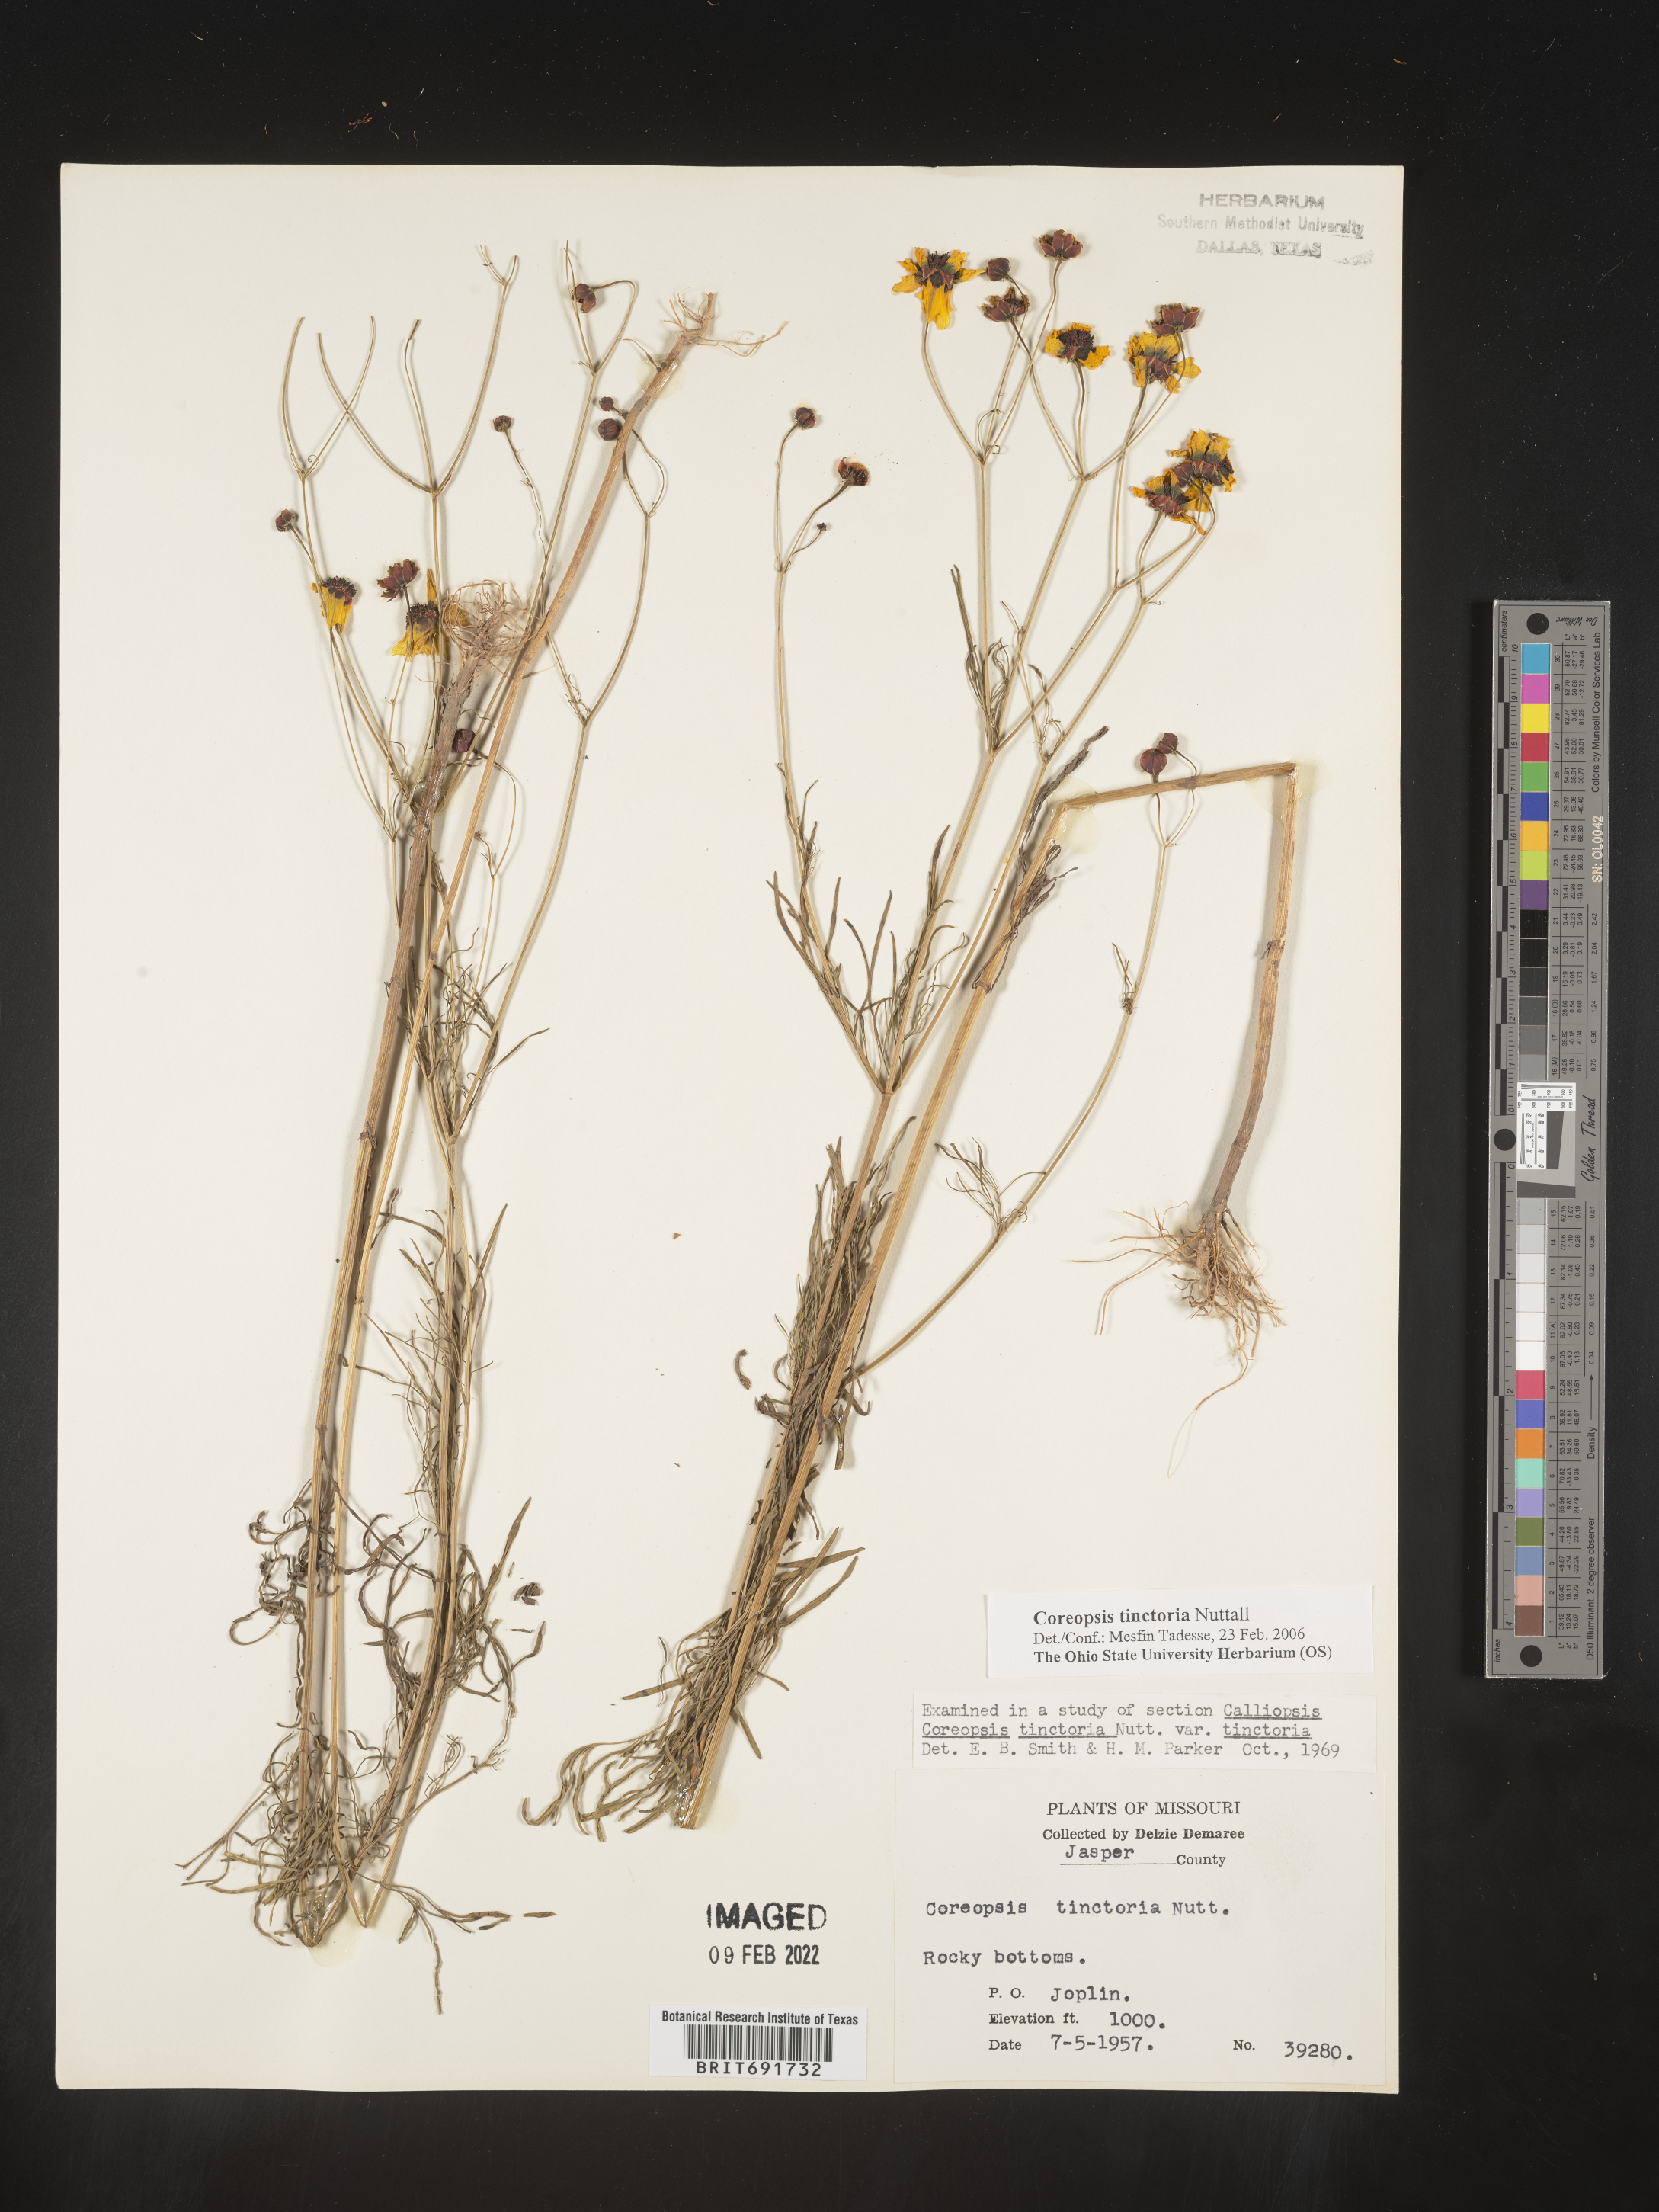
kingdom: Plantae
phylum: Tracheophyta
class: Magnoliopsida
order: Asterales
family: Asteraceae
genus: Coreopsis
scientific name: Coreopsis tinctoria
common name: Garden tickseed
